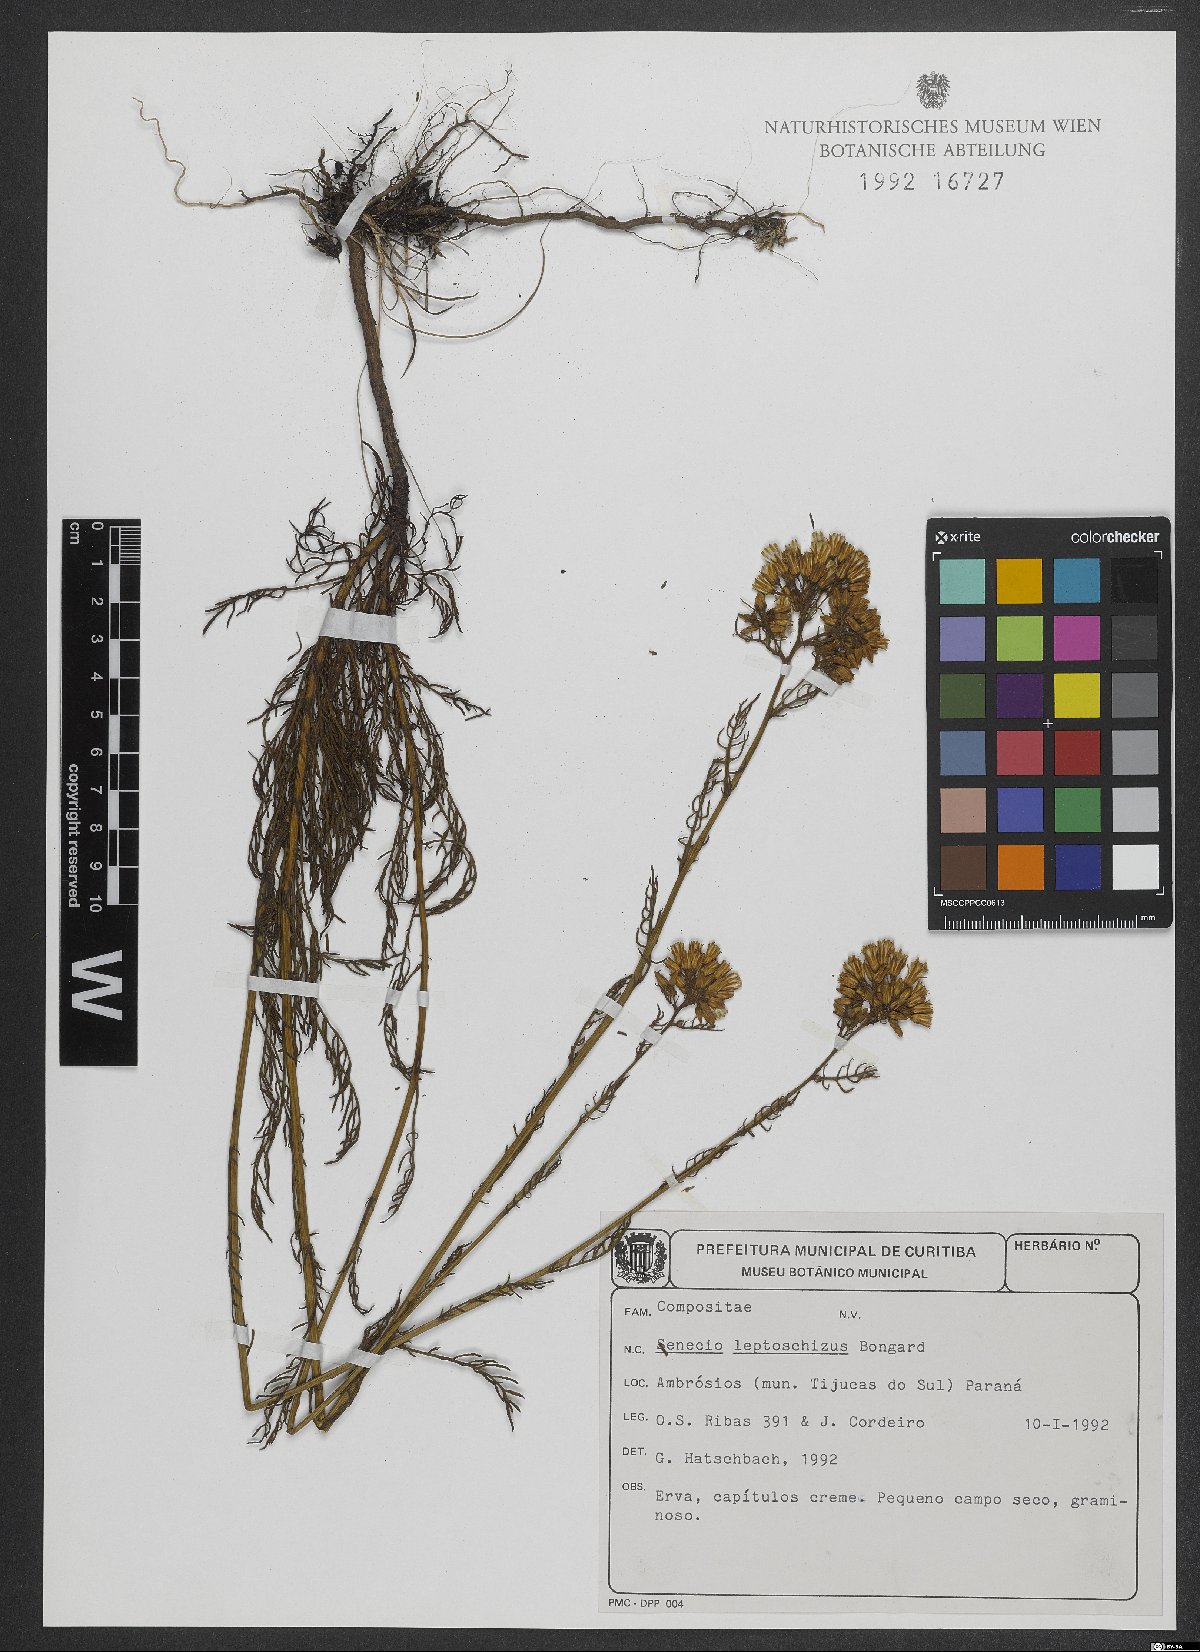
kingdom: Plantae
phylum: Tracheophyta
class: Magnoliopsida
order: Asterales
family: Asteraceae
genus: Senecio
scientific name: Senecio leptoschizus
